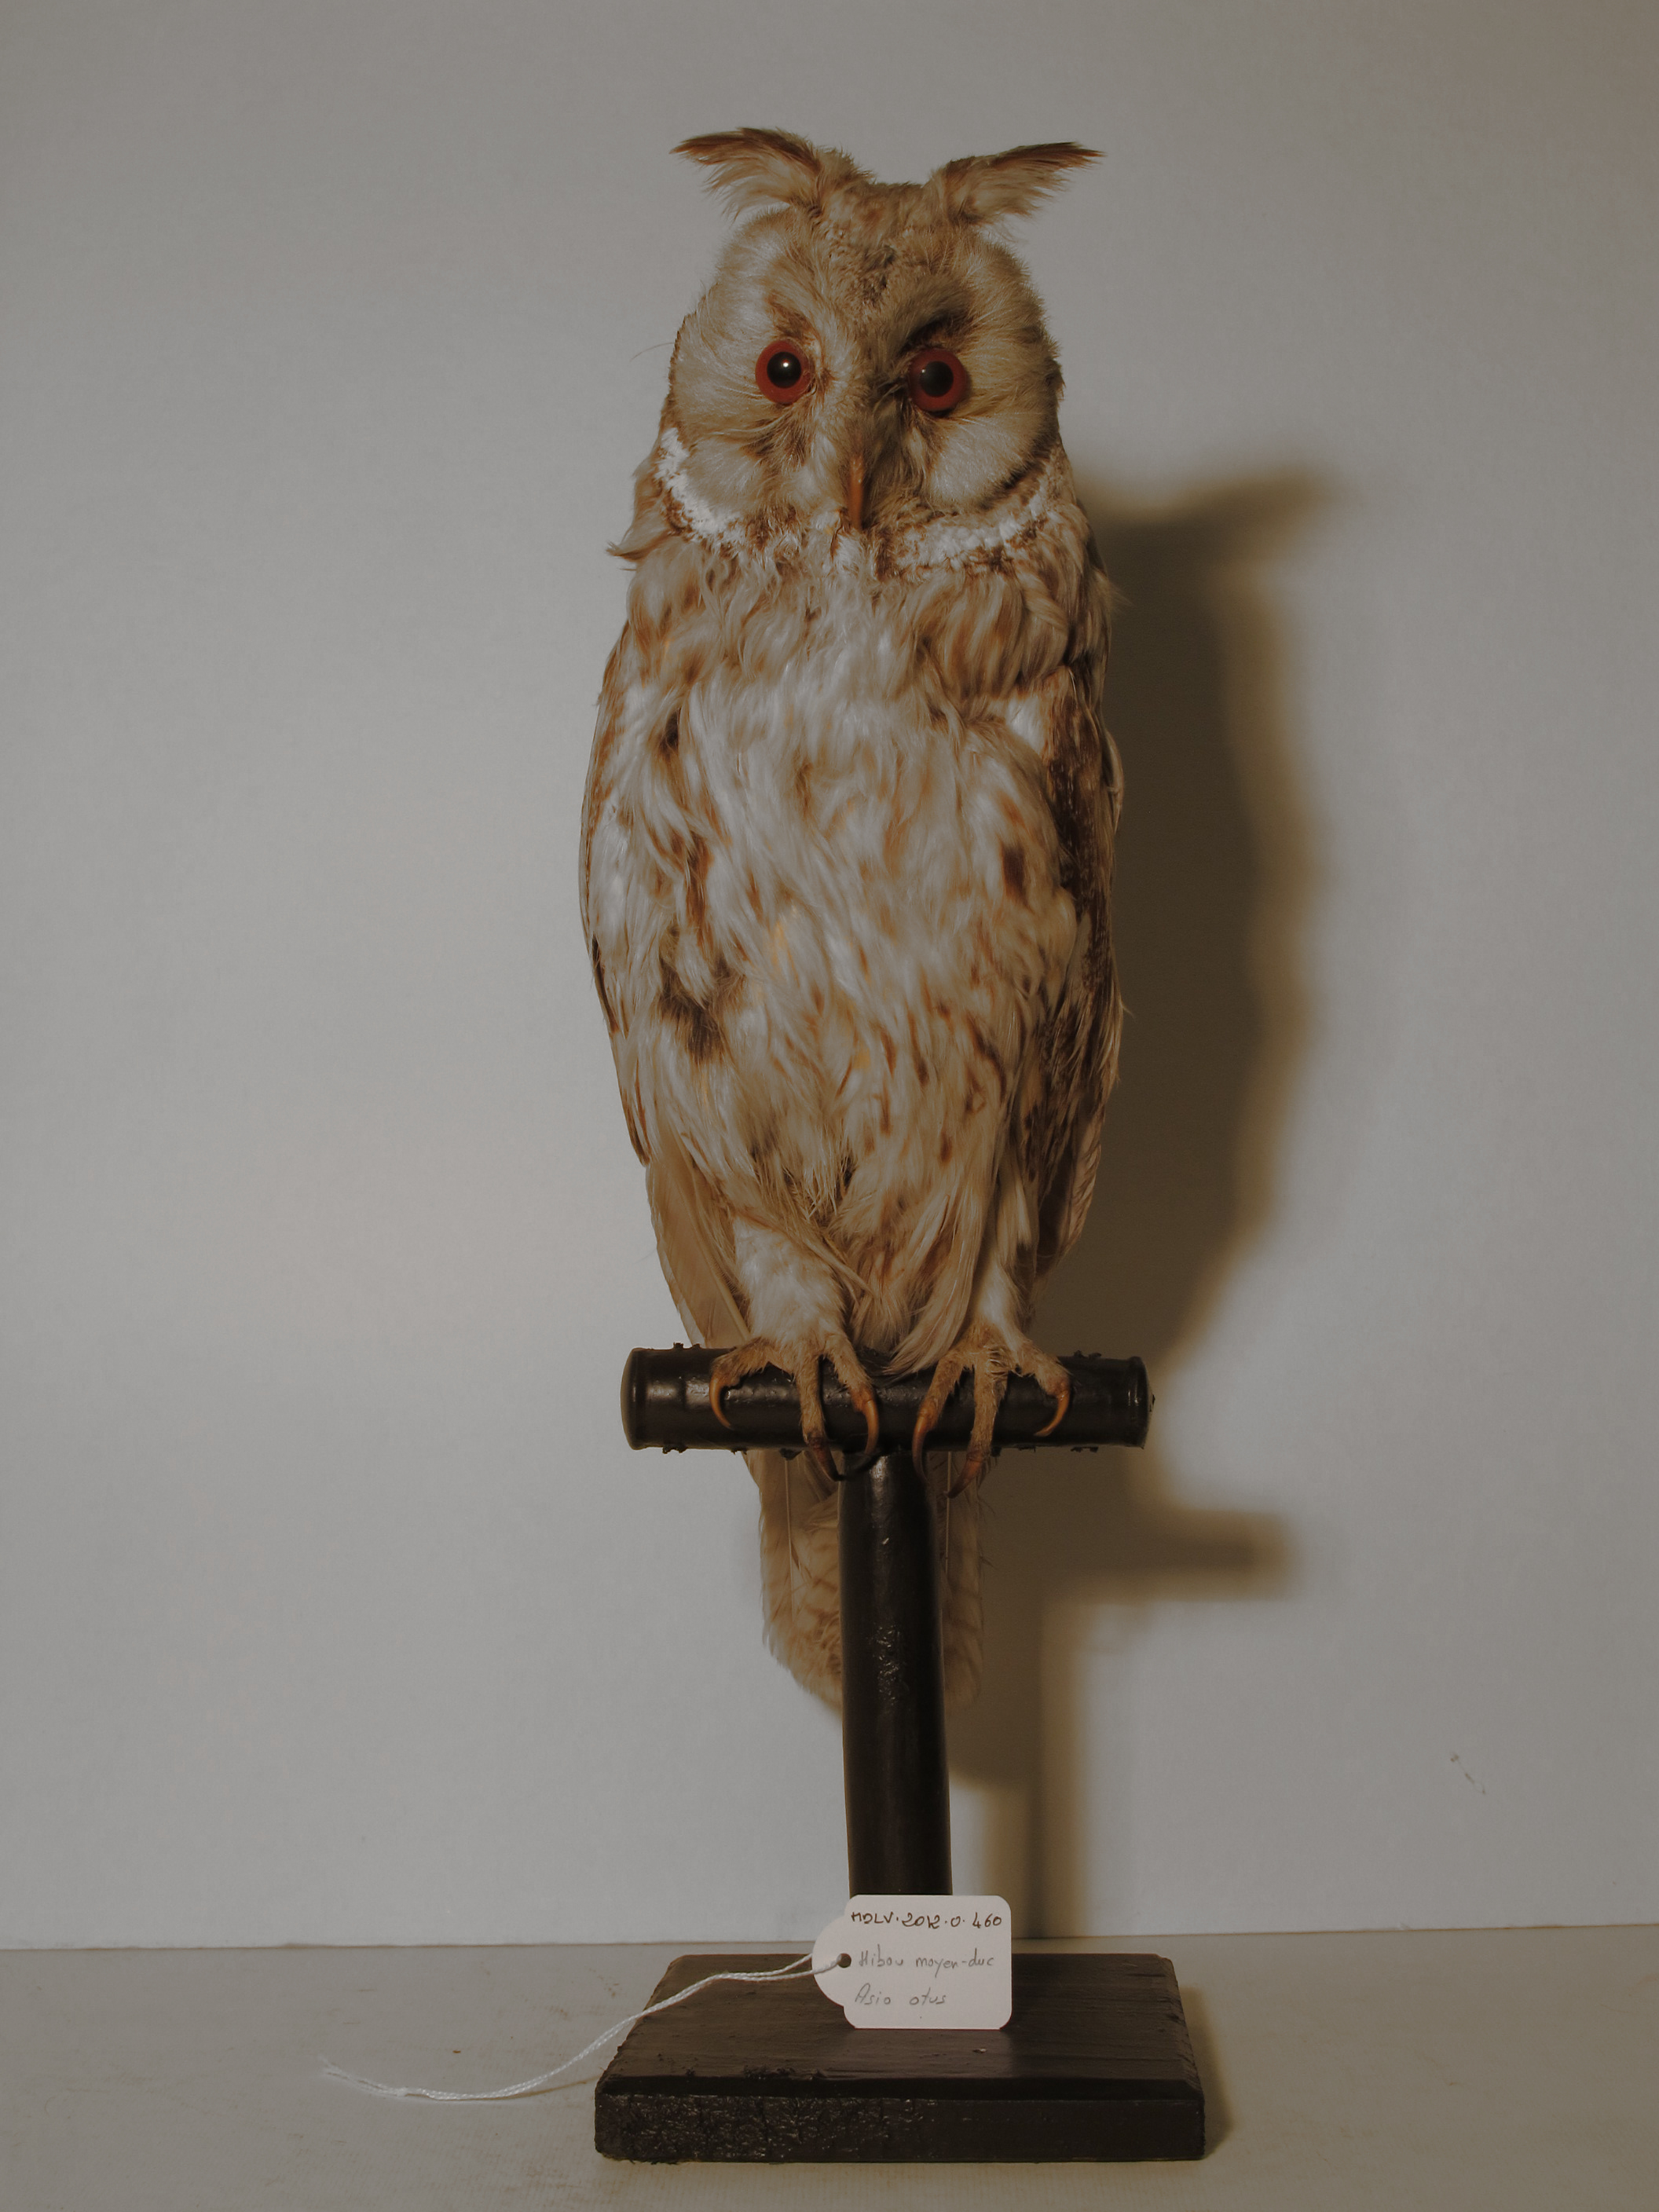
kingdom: Animalia
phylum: Chordata
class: Aves
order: Strigiformes
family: Strigidae
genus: Asio
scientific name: Asio otus
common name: Northern Long-eared Owl
